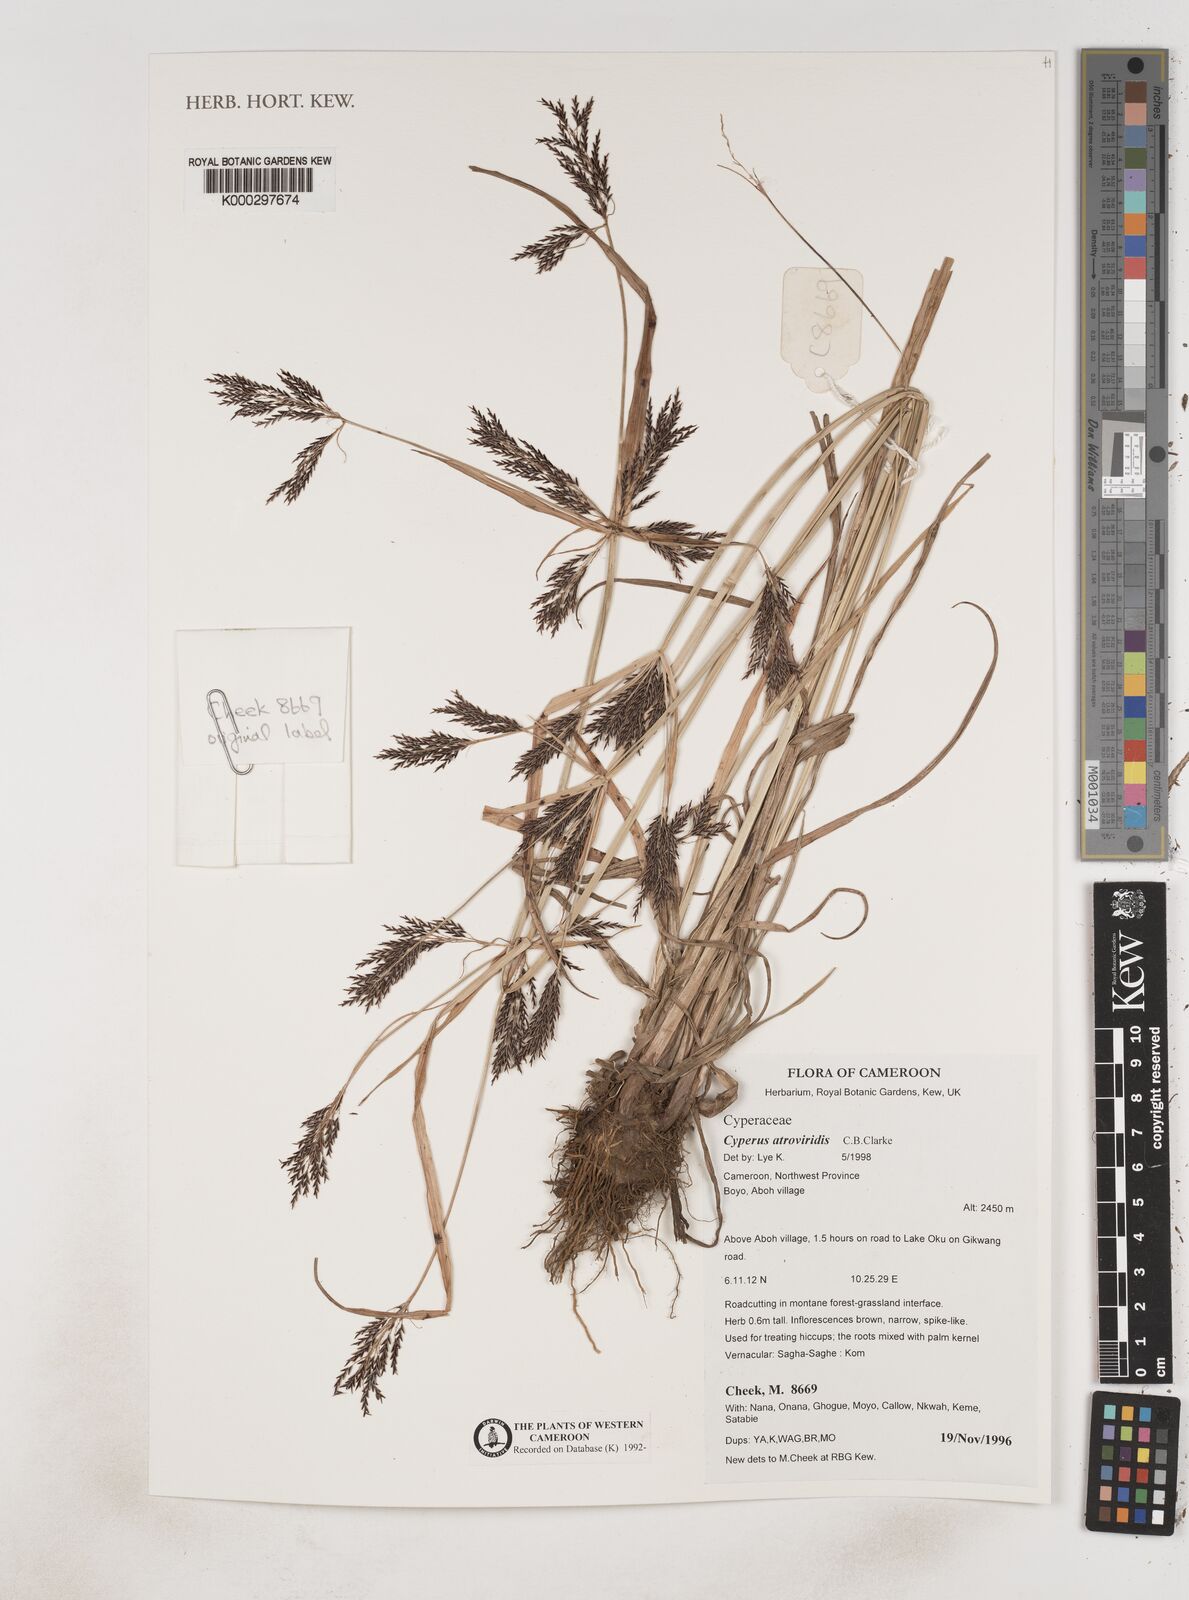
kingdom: Plantae
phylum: Tracheophyta
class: Liliopsida
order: Poales
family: Cyperaceae
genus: Cyperus
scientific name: Cyperus aterrimus
